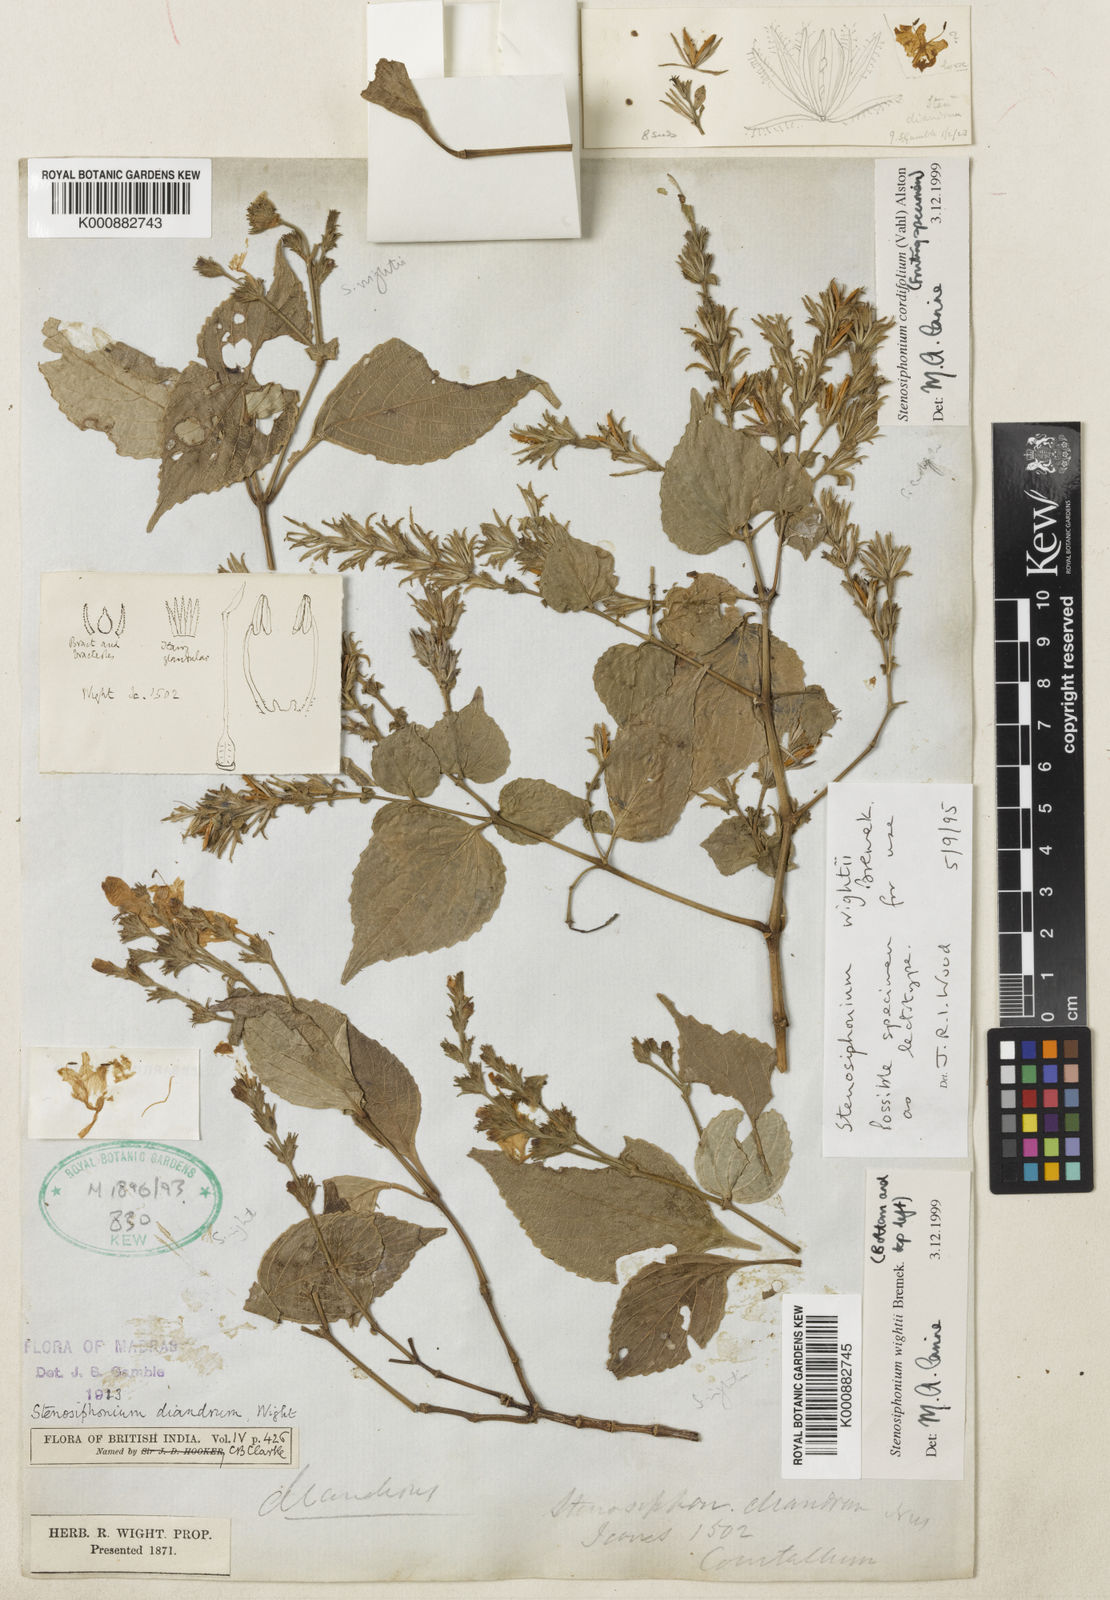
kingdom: Plantae
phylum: Tracheophyta
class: Magnoliopsida
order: Lamiales
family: Acanthaceae
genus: Strobilanthes
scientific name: Strobilanthes cordifolia
